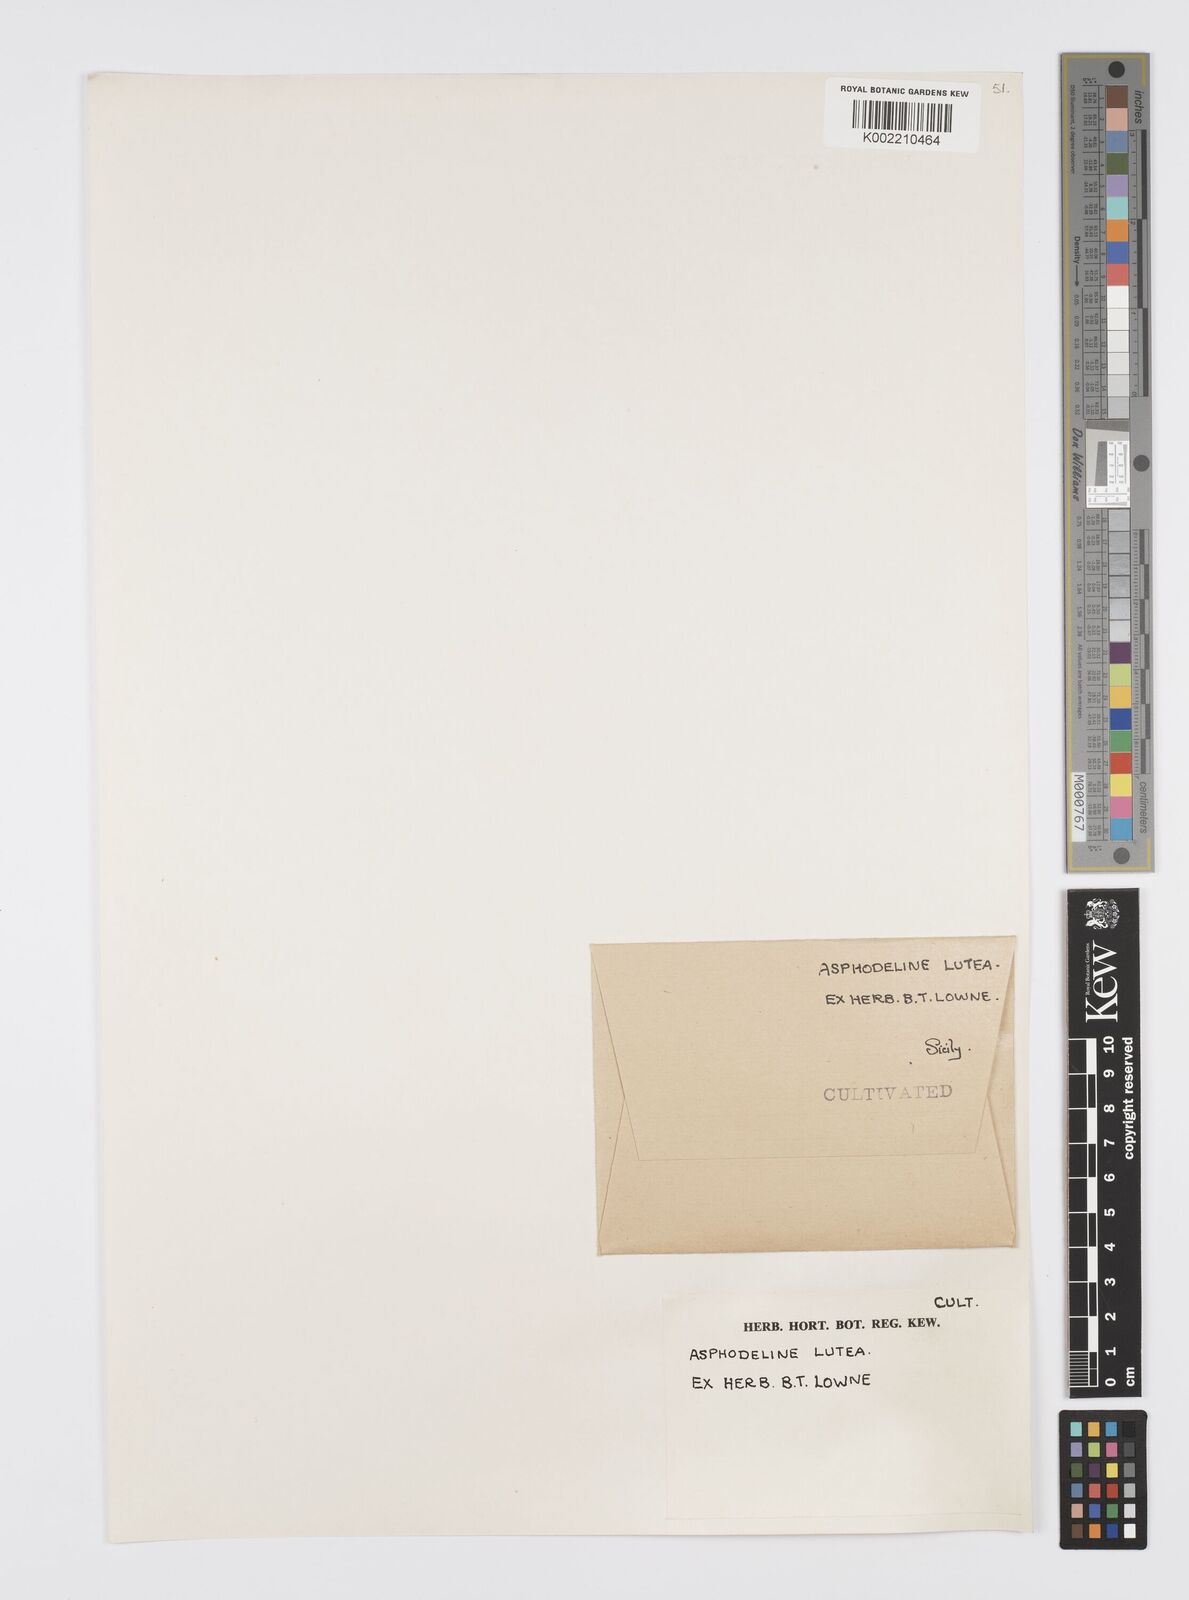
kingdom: Plantae
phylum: Tracheophyta
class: Liliopsida
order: Asparagales
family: Asphodelaceae
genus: Asphodeline
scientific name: Asphodeline lutea
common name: Yellow asphodel
